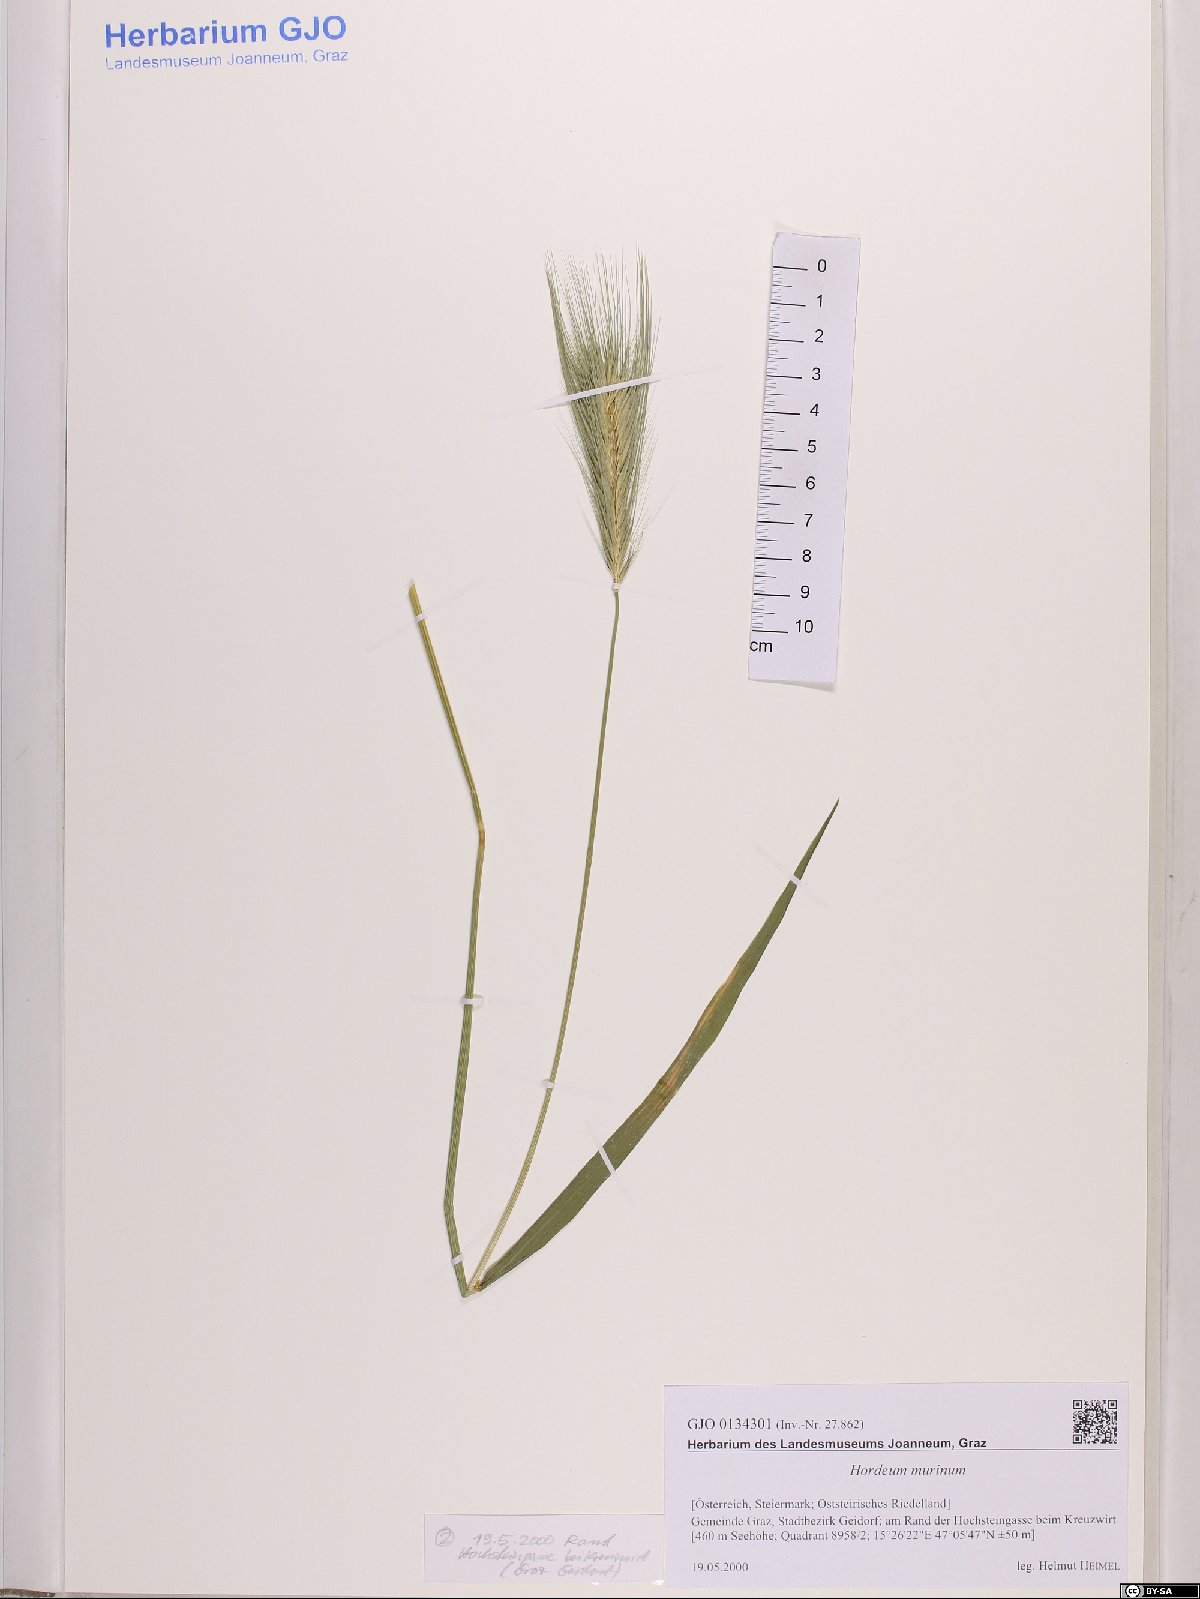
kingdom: Plantae
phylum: Tracheophyta
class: Liliopsida
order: Poales
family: Poaceae
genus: Hordeum
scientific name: Hordeum murinum
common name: Wall barley
